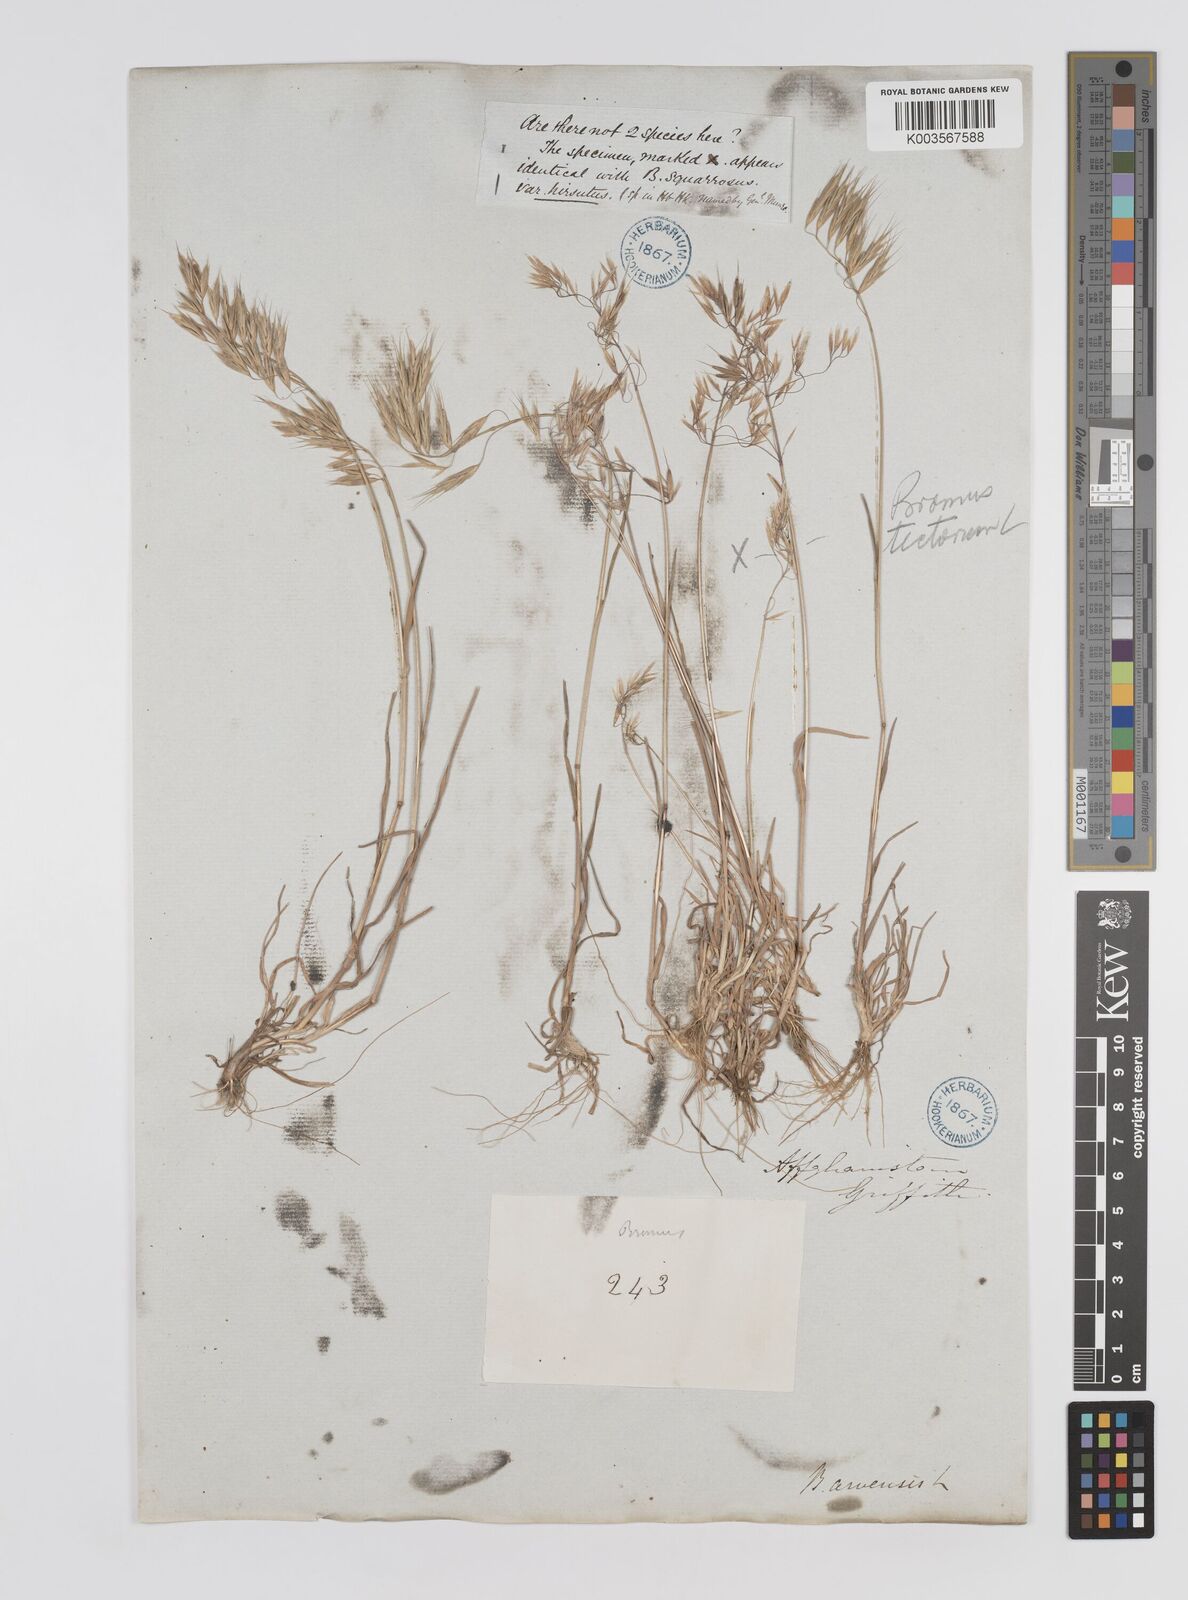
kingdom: Plantae
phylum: Tracheophyta
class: Liliopsida
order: Poales
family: Poaceae
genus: Bromus
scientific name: Bromus pectinatus
